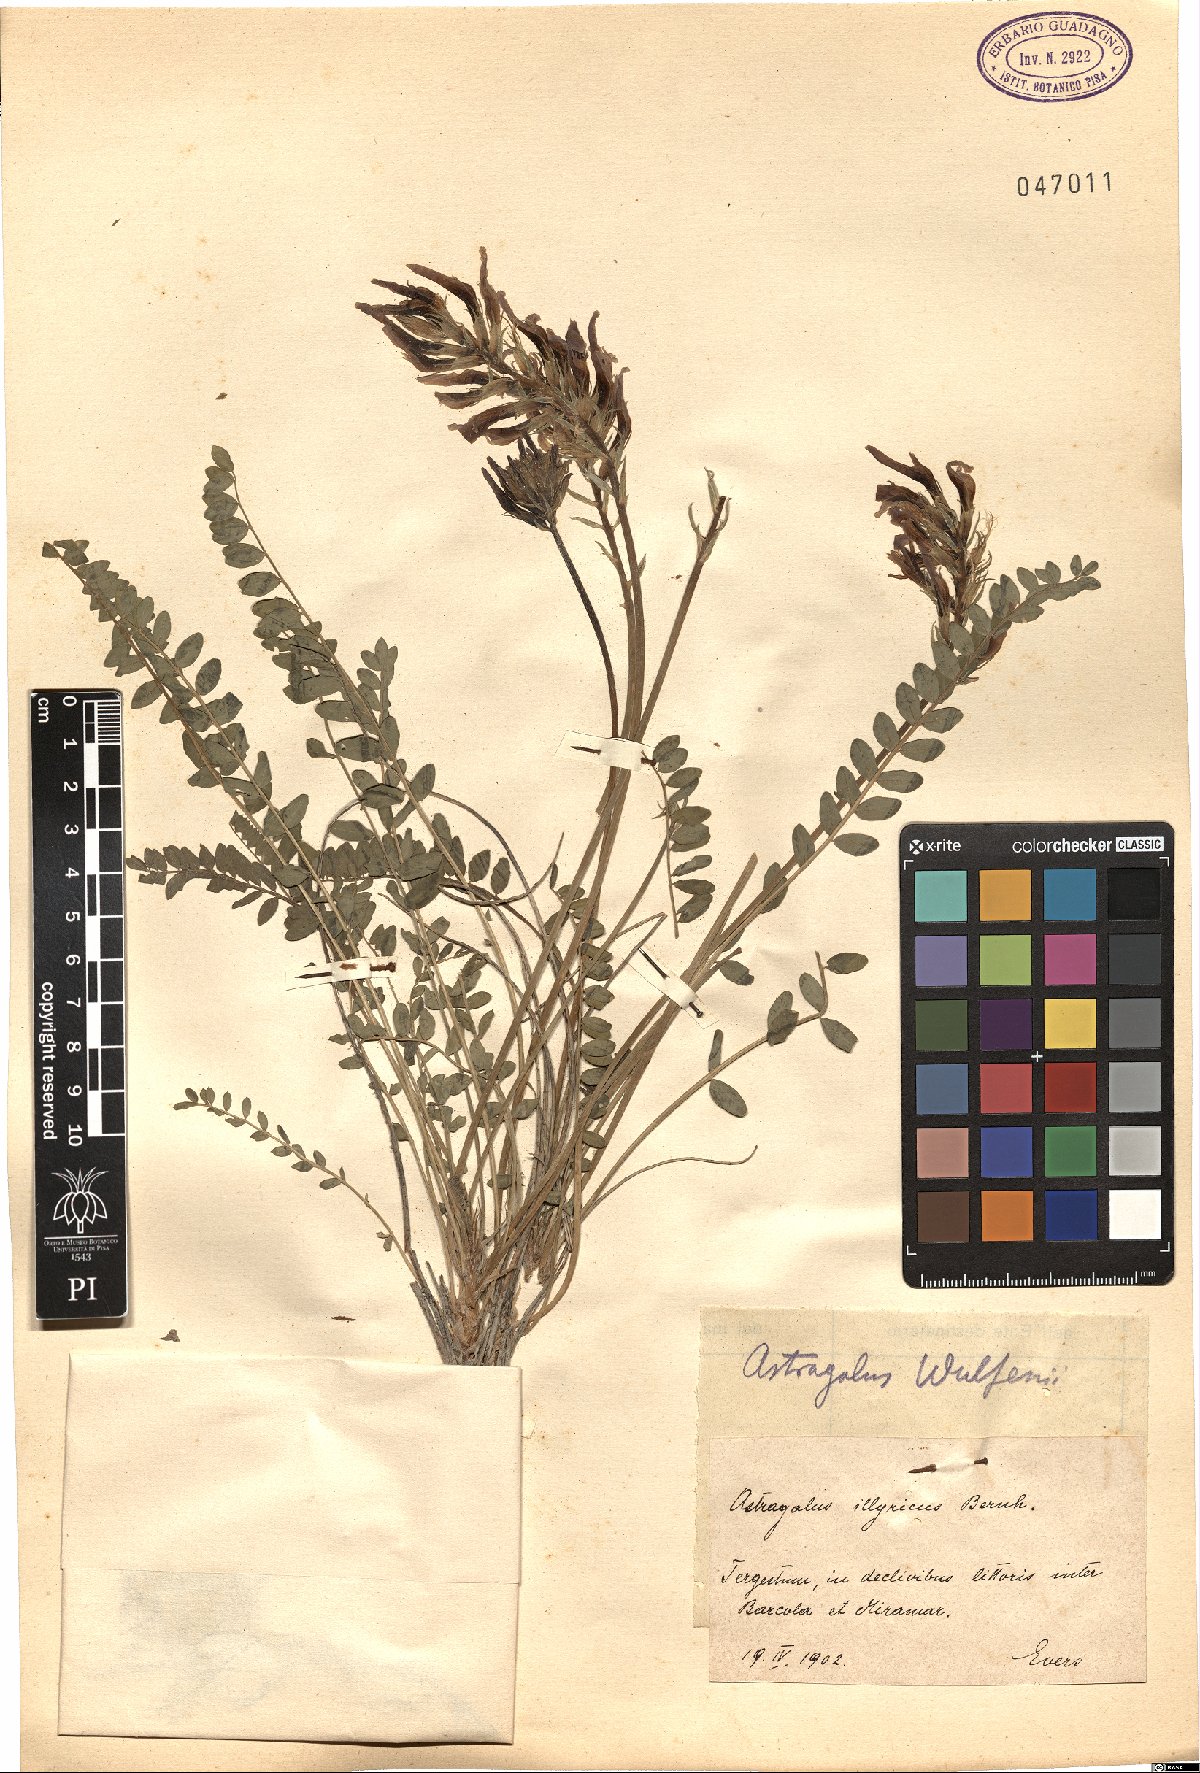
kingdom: Plantae
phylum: Tracheophyta
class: Magnoliopsida
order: Fabales
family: Fabaceae
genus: Astragalus
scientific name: Astragalus monspessulanus
